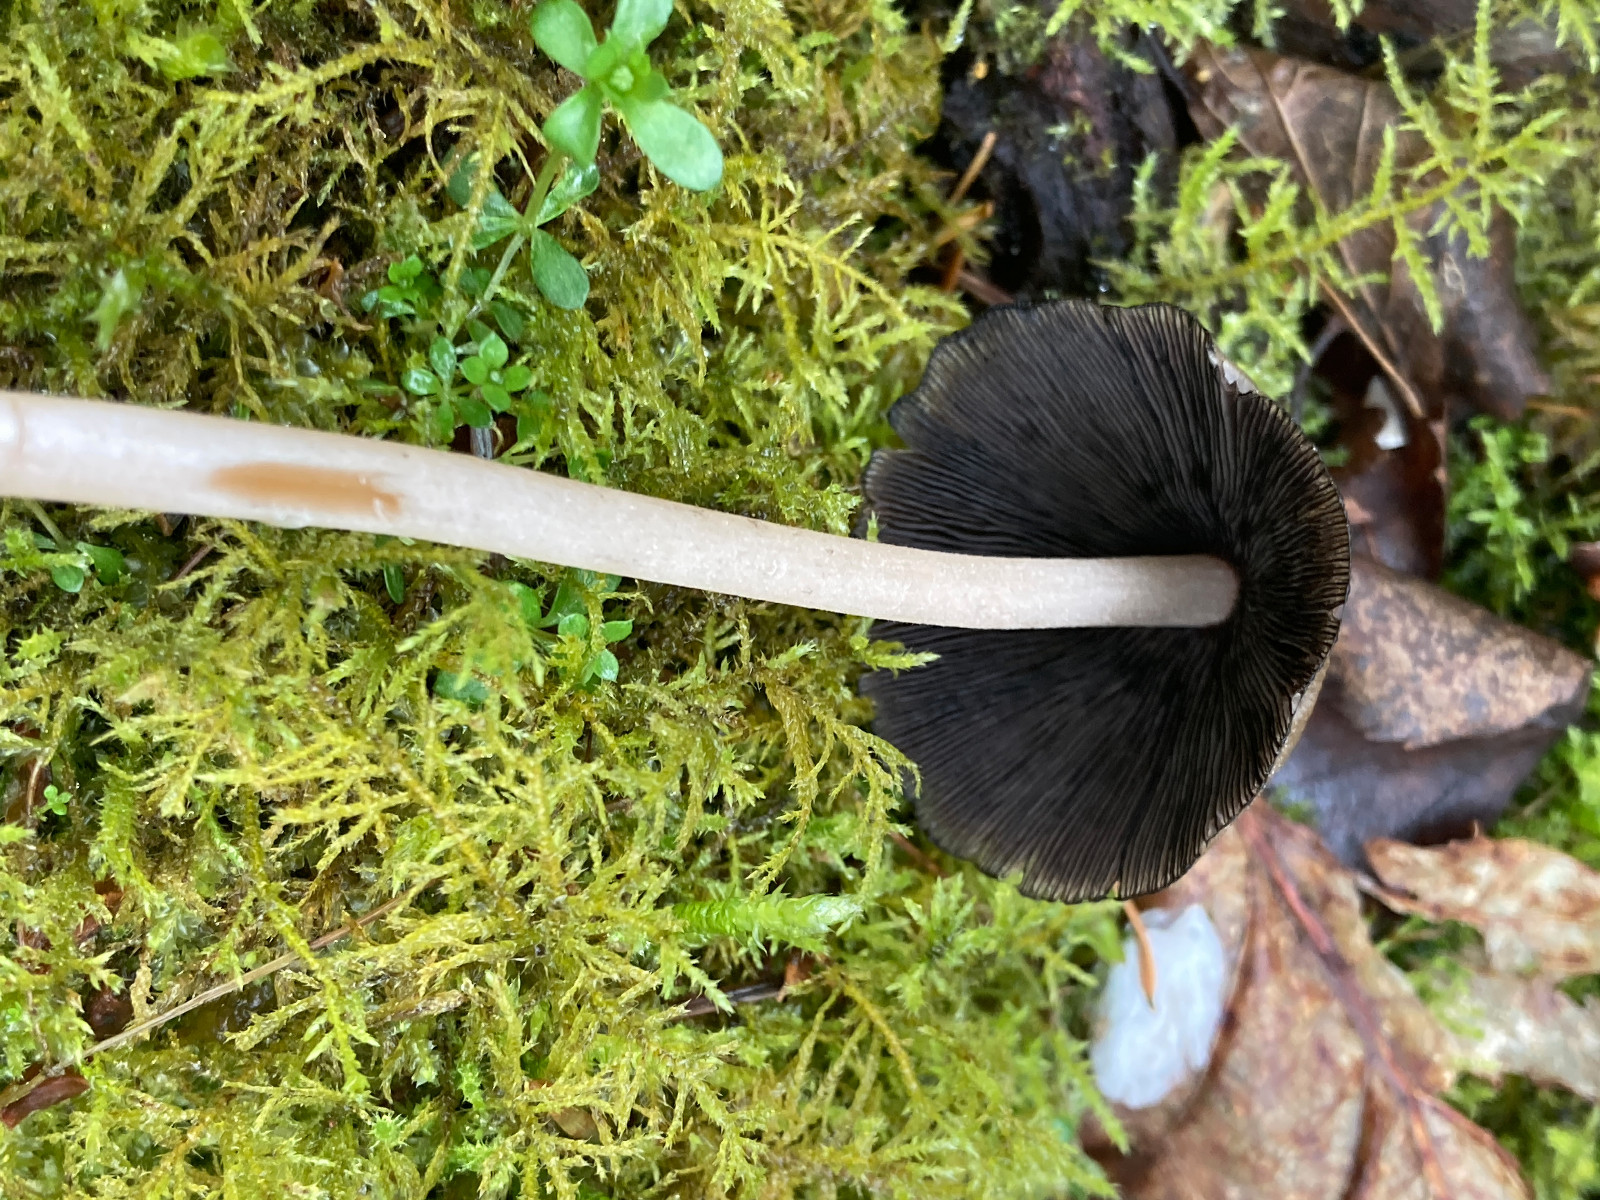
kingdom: Fungi
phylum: Basidiomycota
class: Agaricomycetes
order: Agaricales
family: Psathyrellaceae
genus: Coprinellus
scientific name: Coprinellus micaceus
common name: glimmer-blækhat
